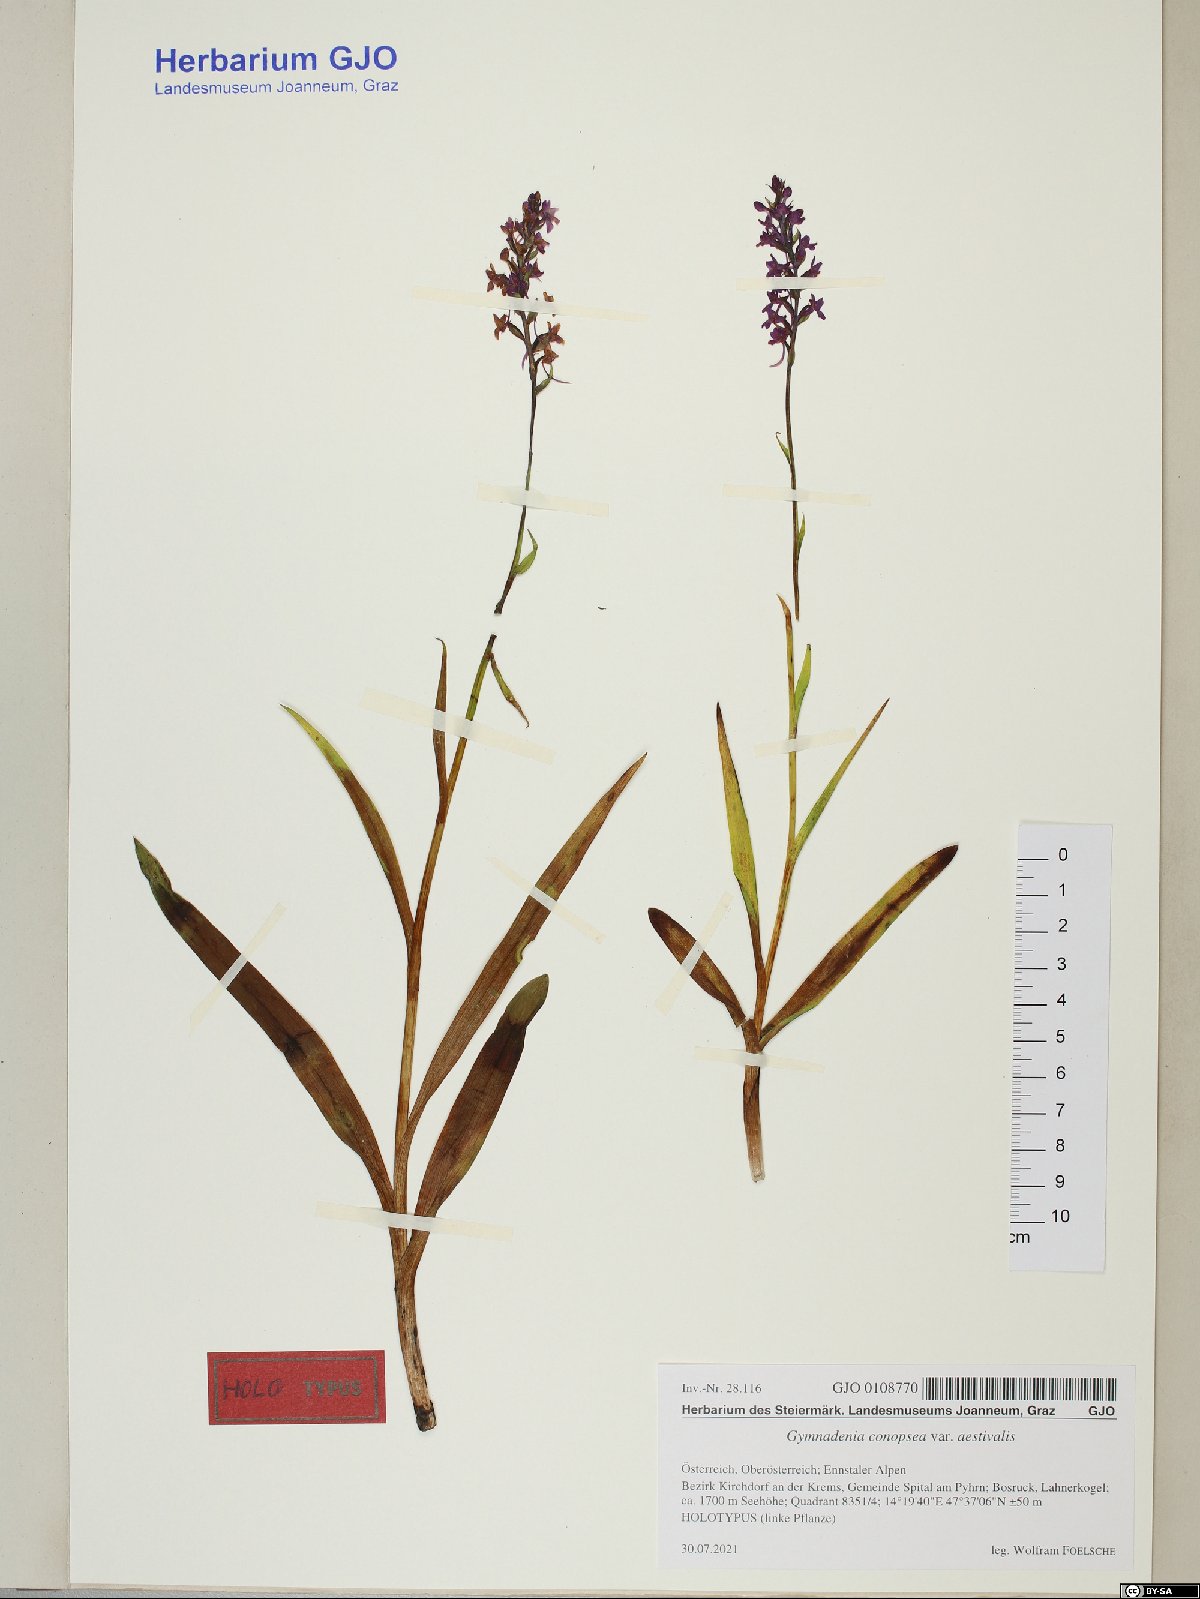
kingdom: Plantae
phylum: Tracheophyta
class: Liliopsida
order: Asparagales
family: Orchidaceae
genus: Gymnadenia
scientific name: Gymnadenia conopsea
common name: Fragrant orchid
